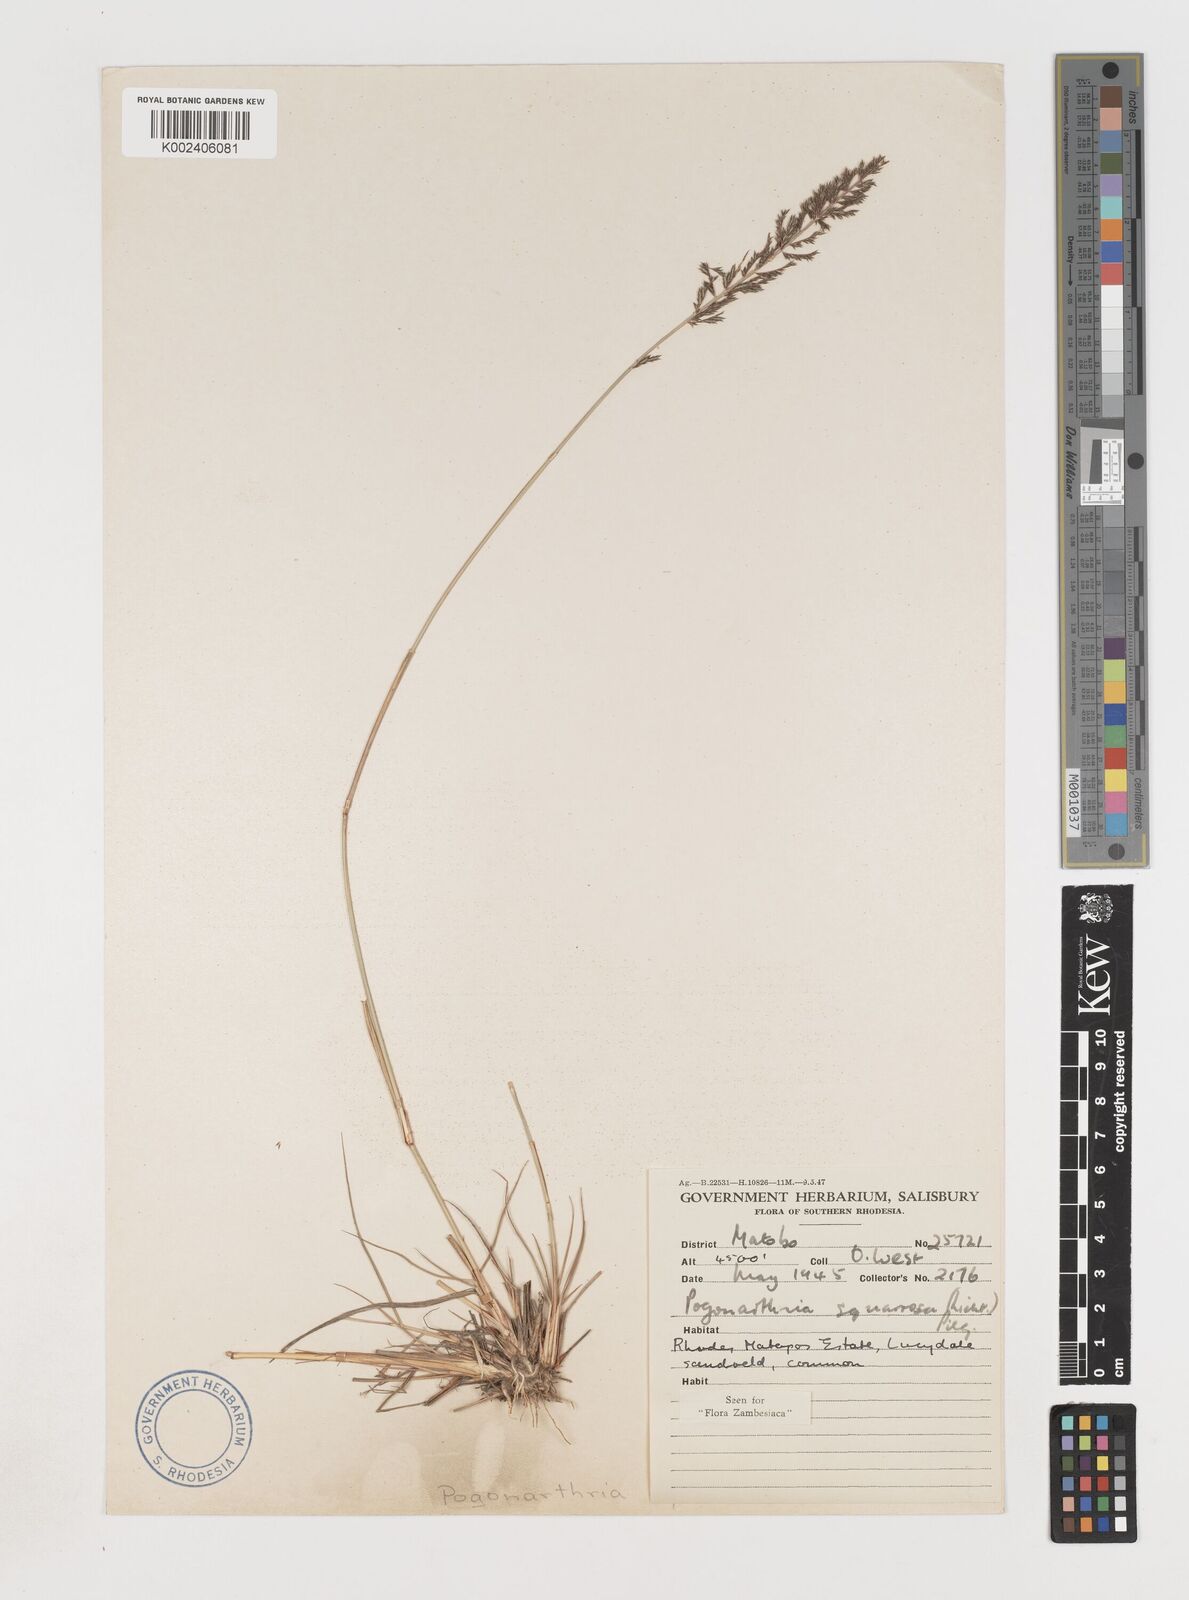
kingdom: Plantae
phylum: Tracheophyta
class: Liliopsida
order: Poales
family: Poaceae
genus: Pogonarthria
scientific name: Pogonarthria squarrosa
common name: Grass
